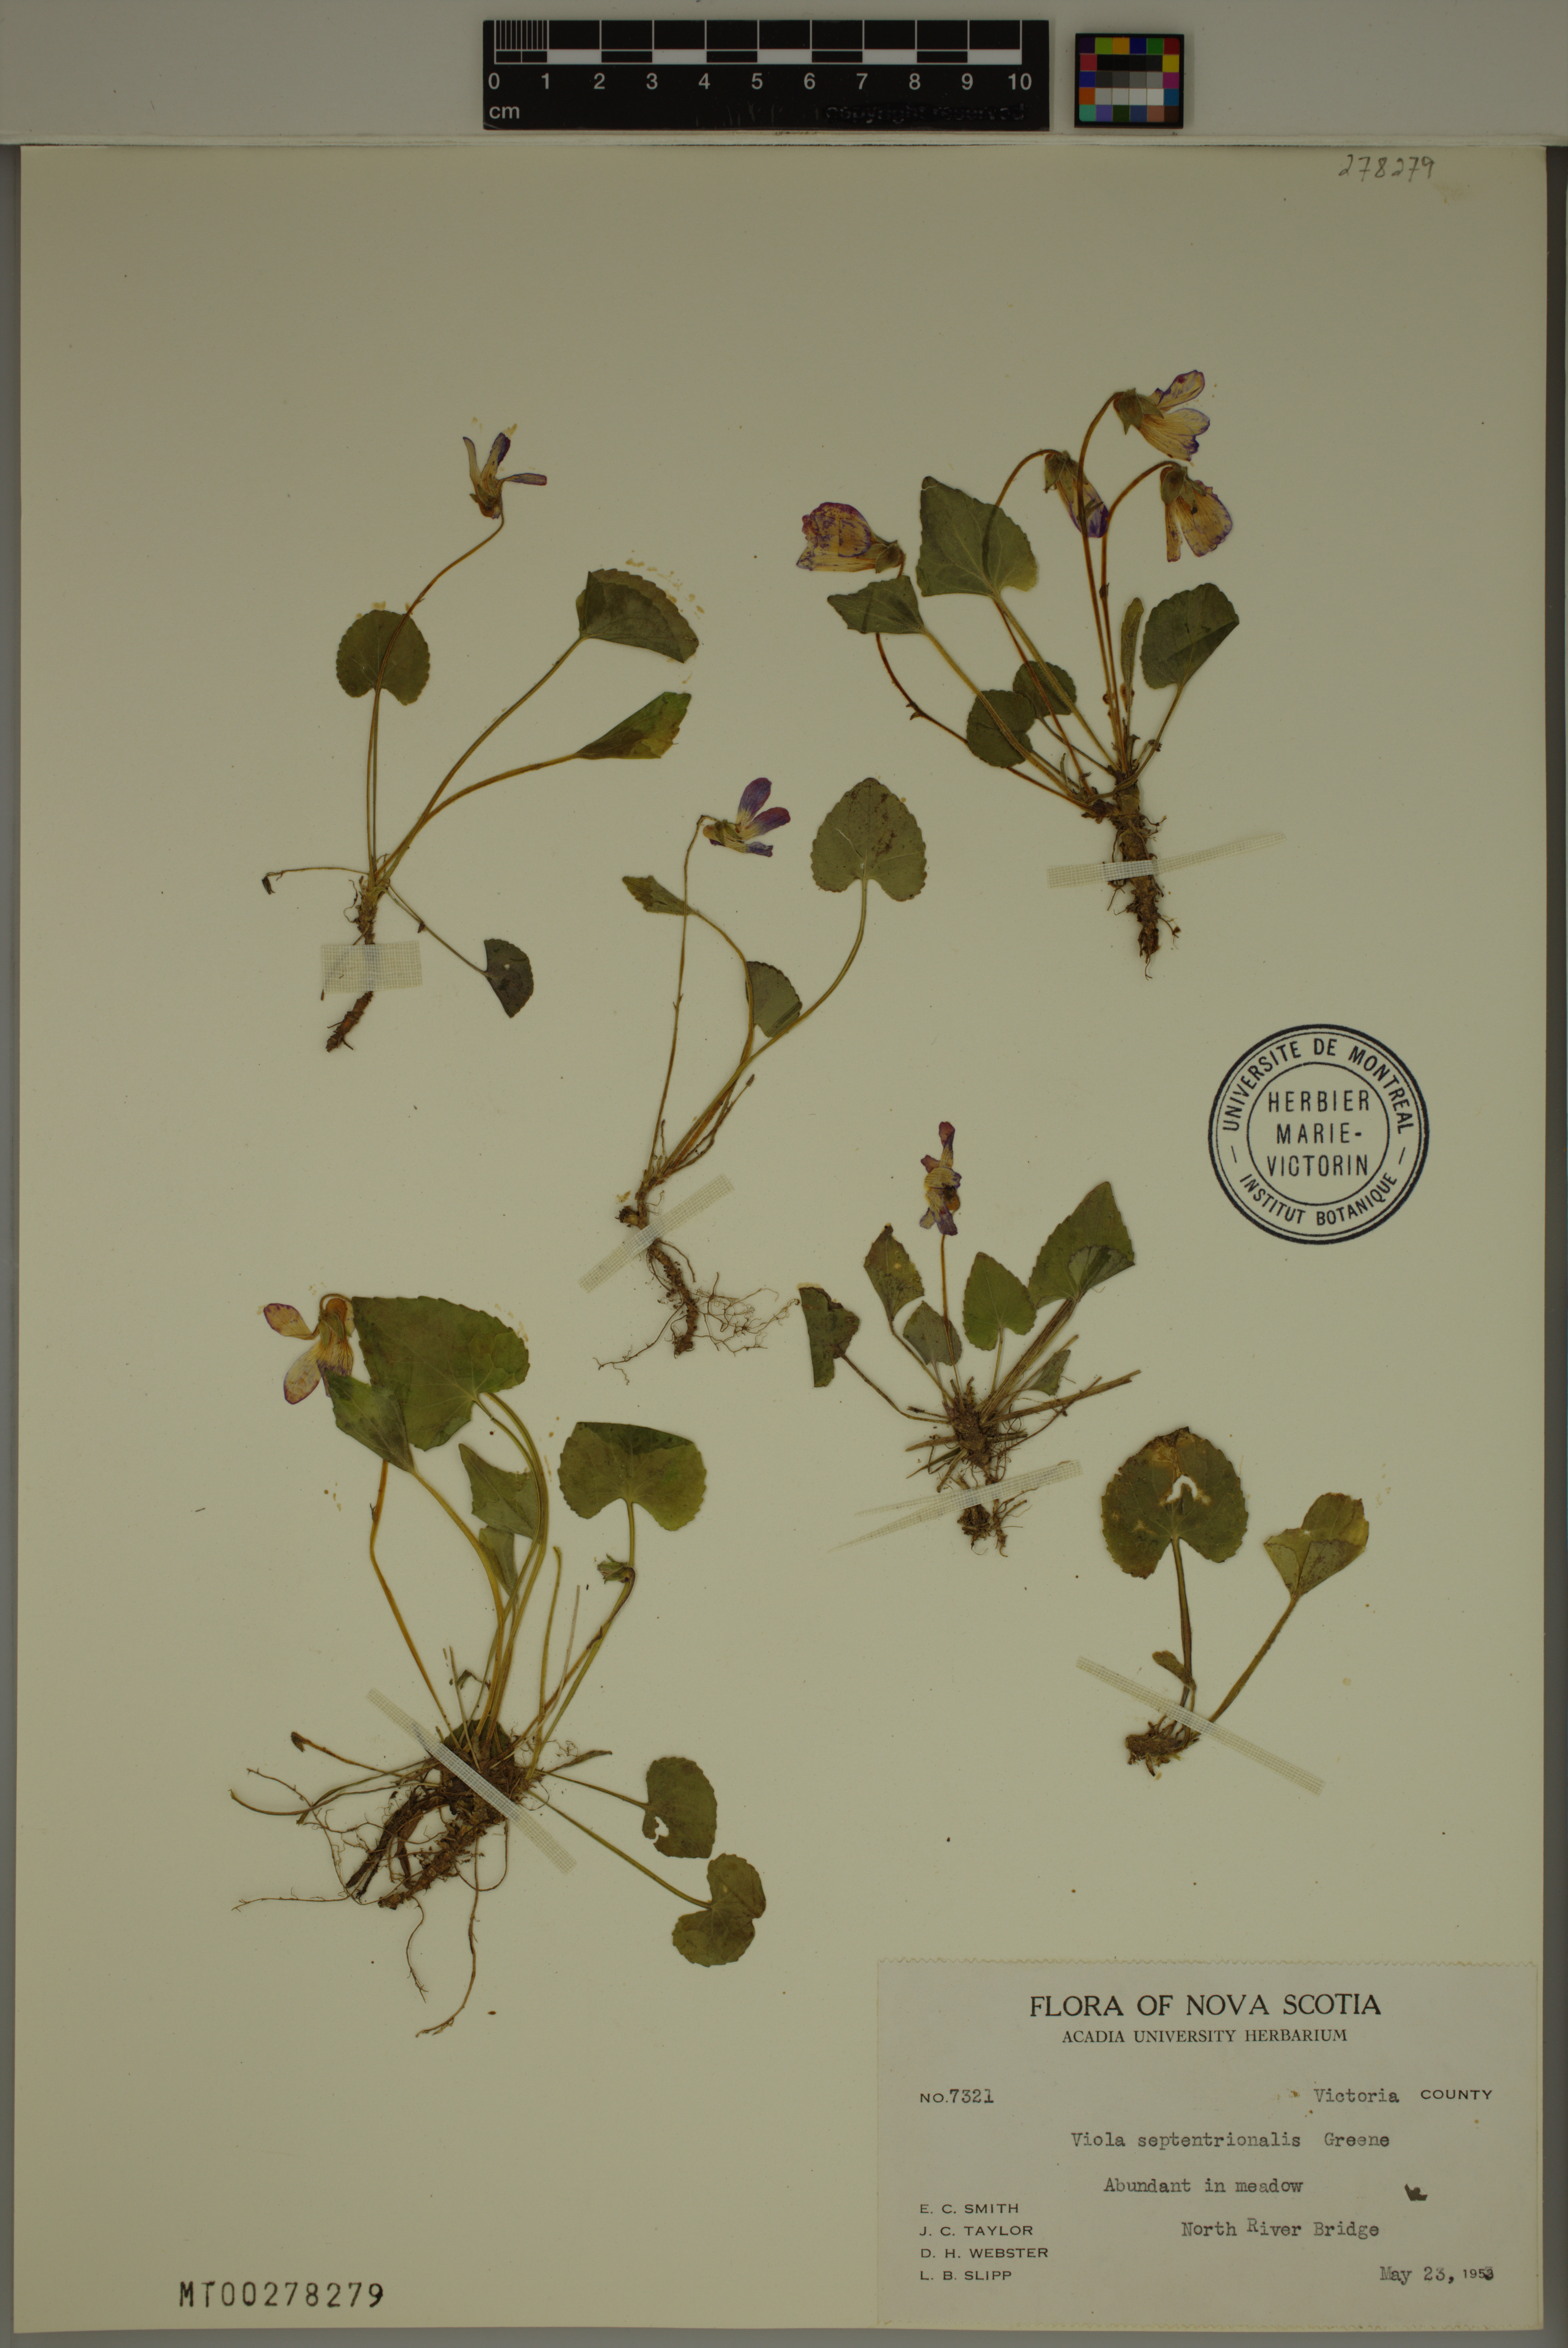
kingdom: Plantae
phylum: Tracheophyta
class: Magnoliopsida
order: Malpighiales
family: Violaceae
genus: Viola
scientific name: Viola septentrionalis
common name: Northern woodland violet
